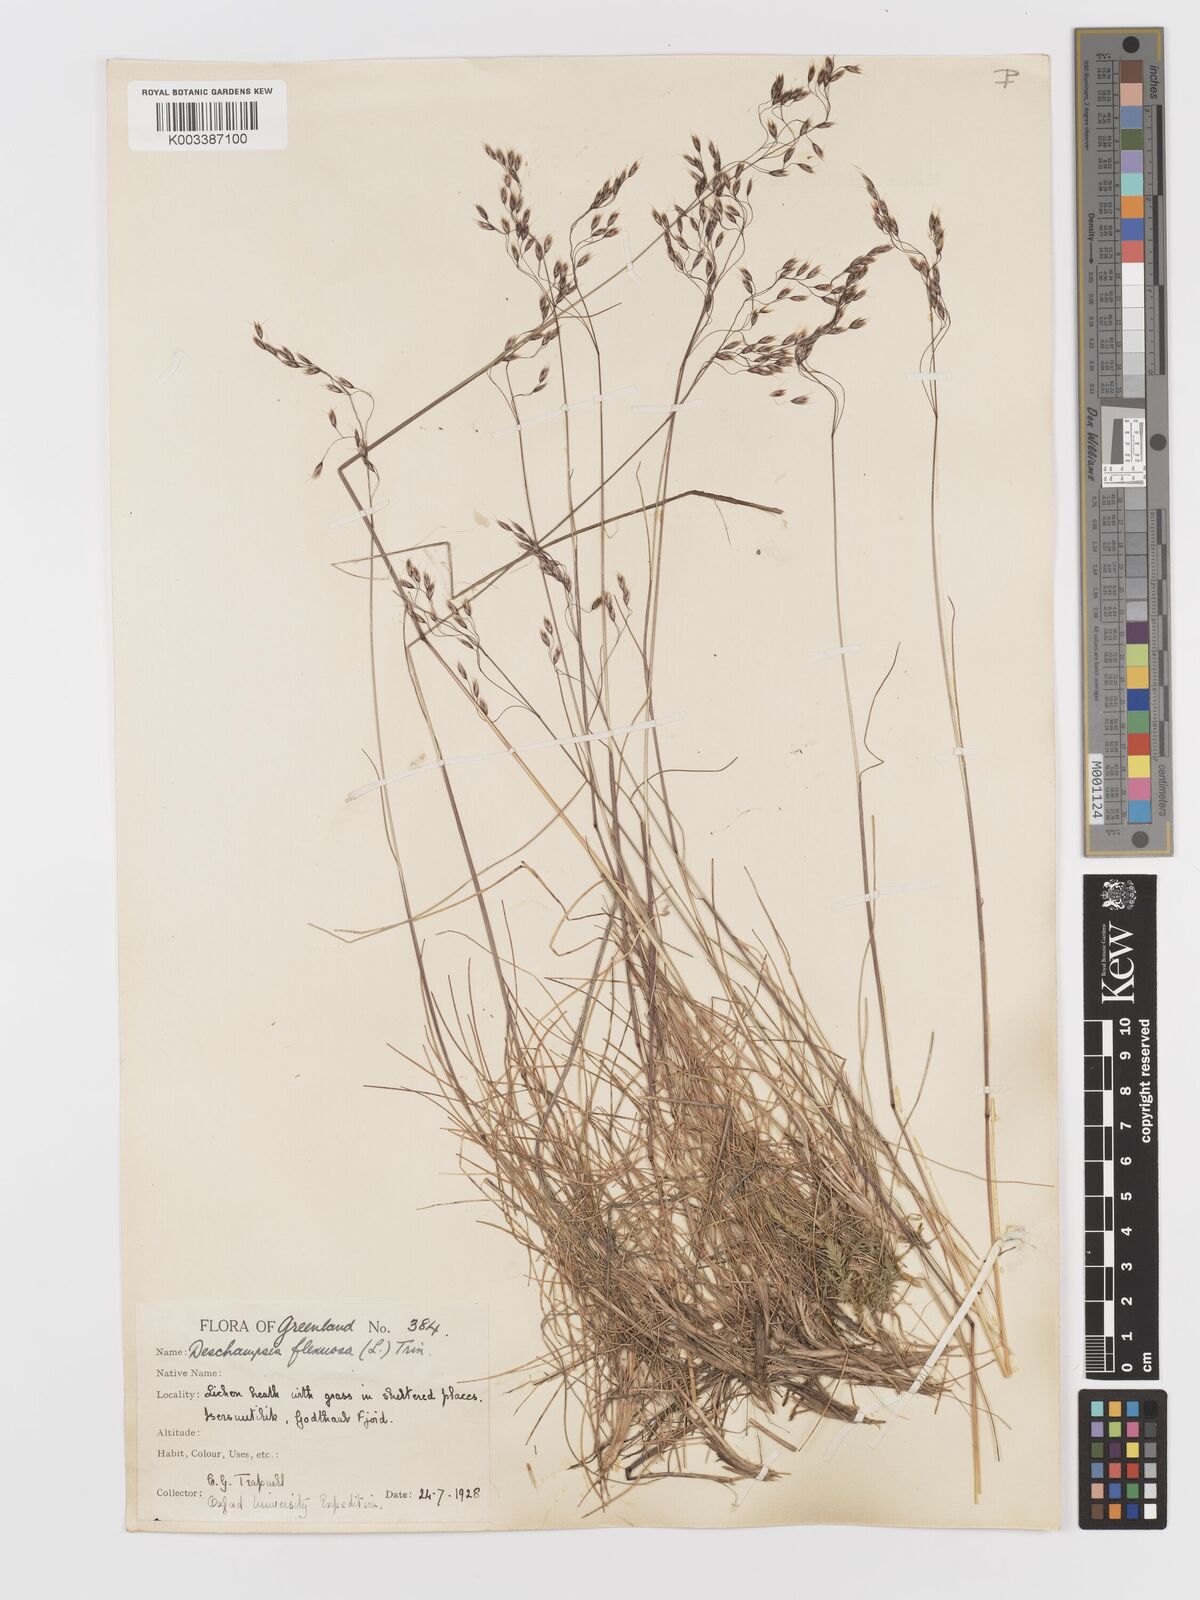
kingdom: Plantae
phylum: Tracheophyta
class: Liliopsida
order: Poales
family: Poaceae
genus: Avenella
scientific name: Avenella flexuosa
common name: Wavy hairgrass
